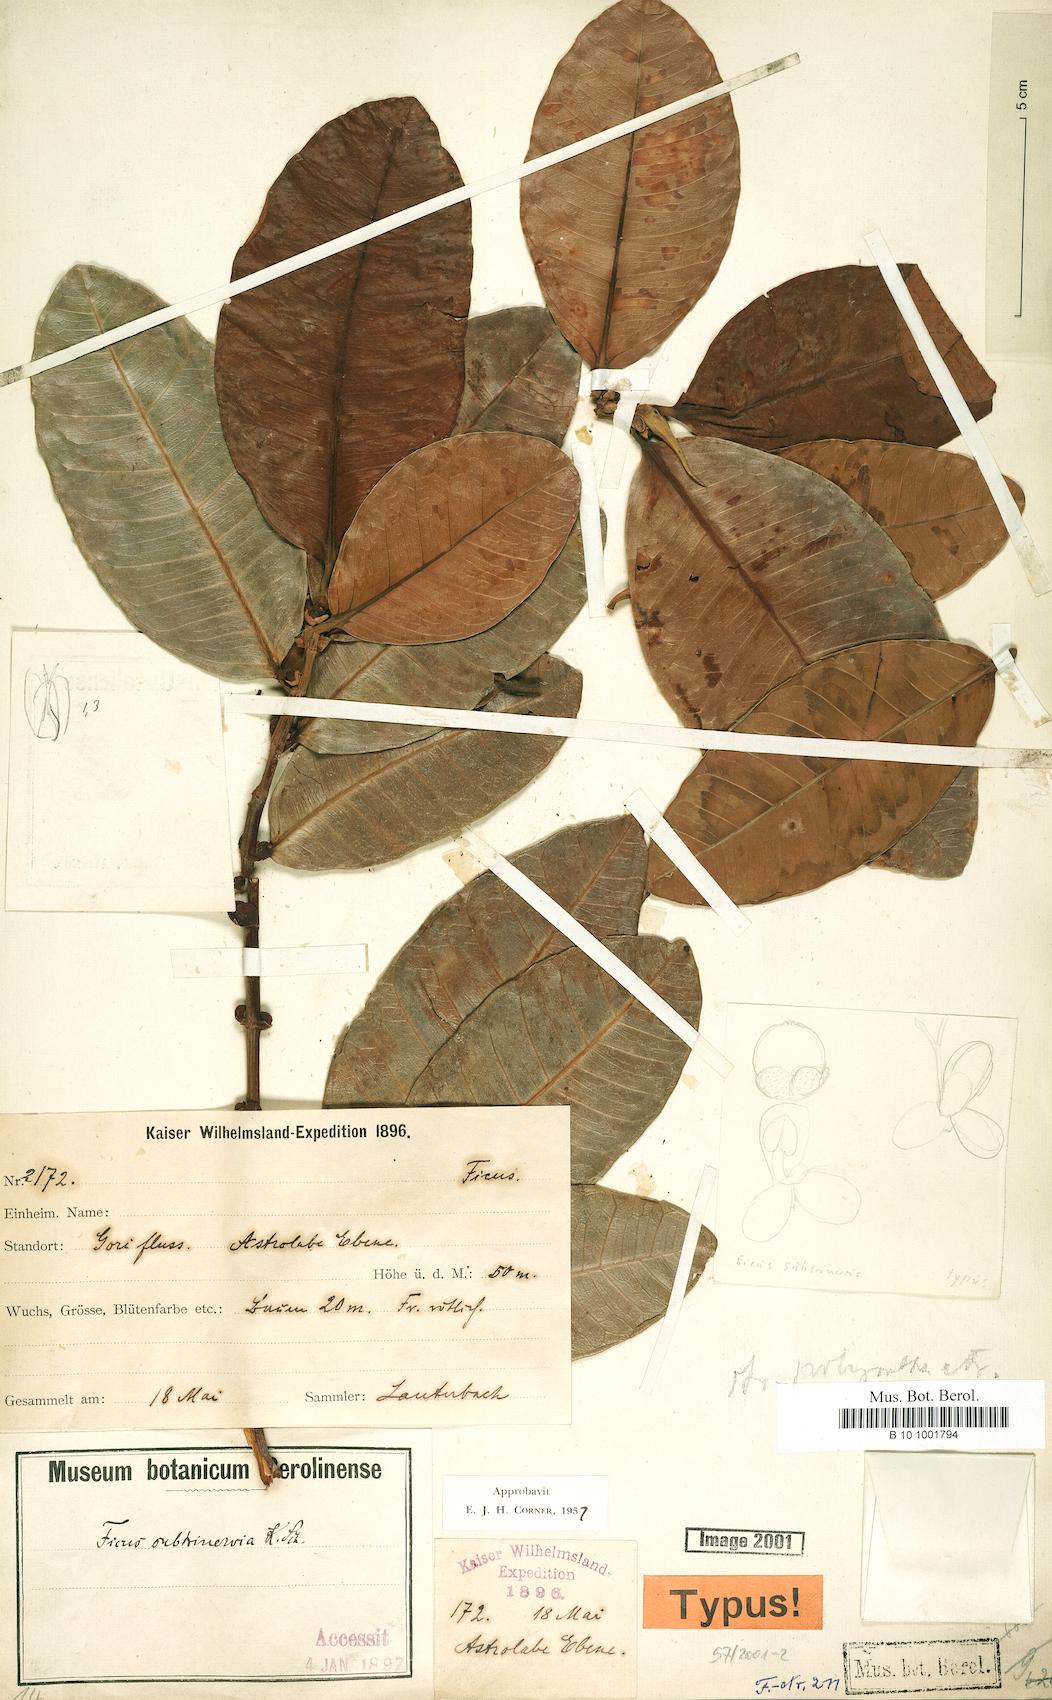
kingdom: Plantae
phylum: Tracheophyta
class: Magnoliopsida
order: Rosales
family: Moraceae
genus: Ficus
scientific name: Ficus subtrinervia
